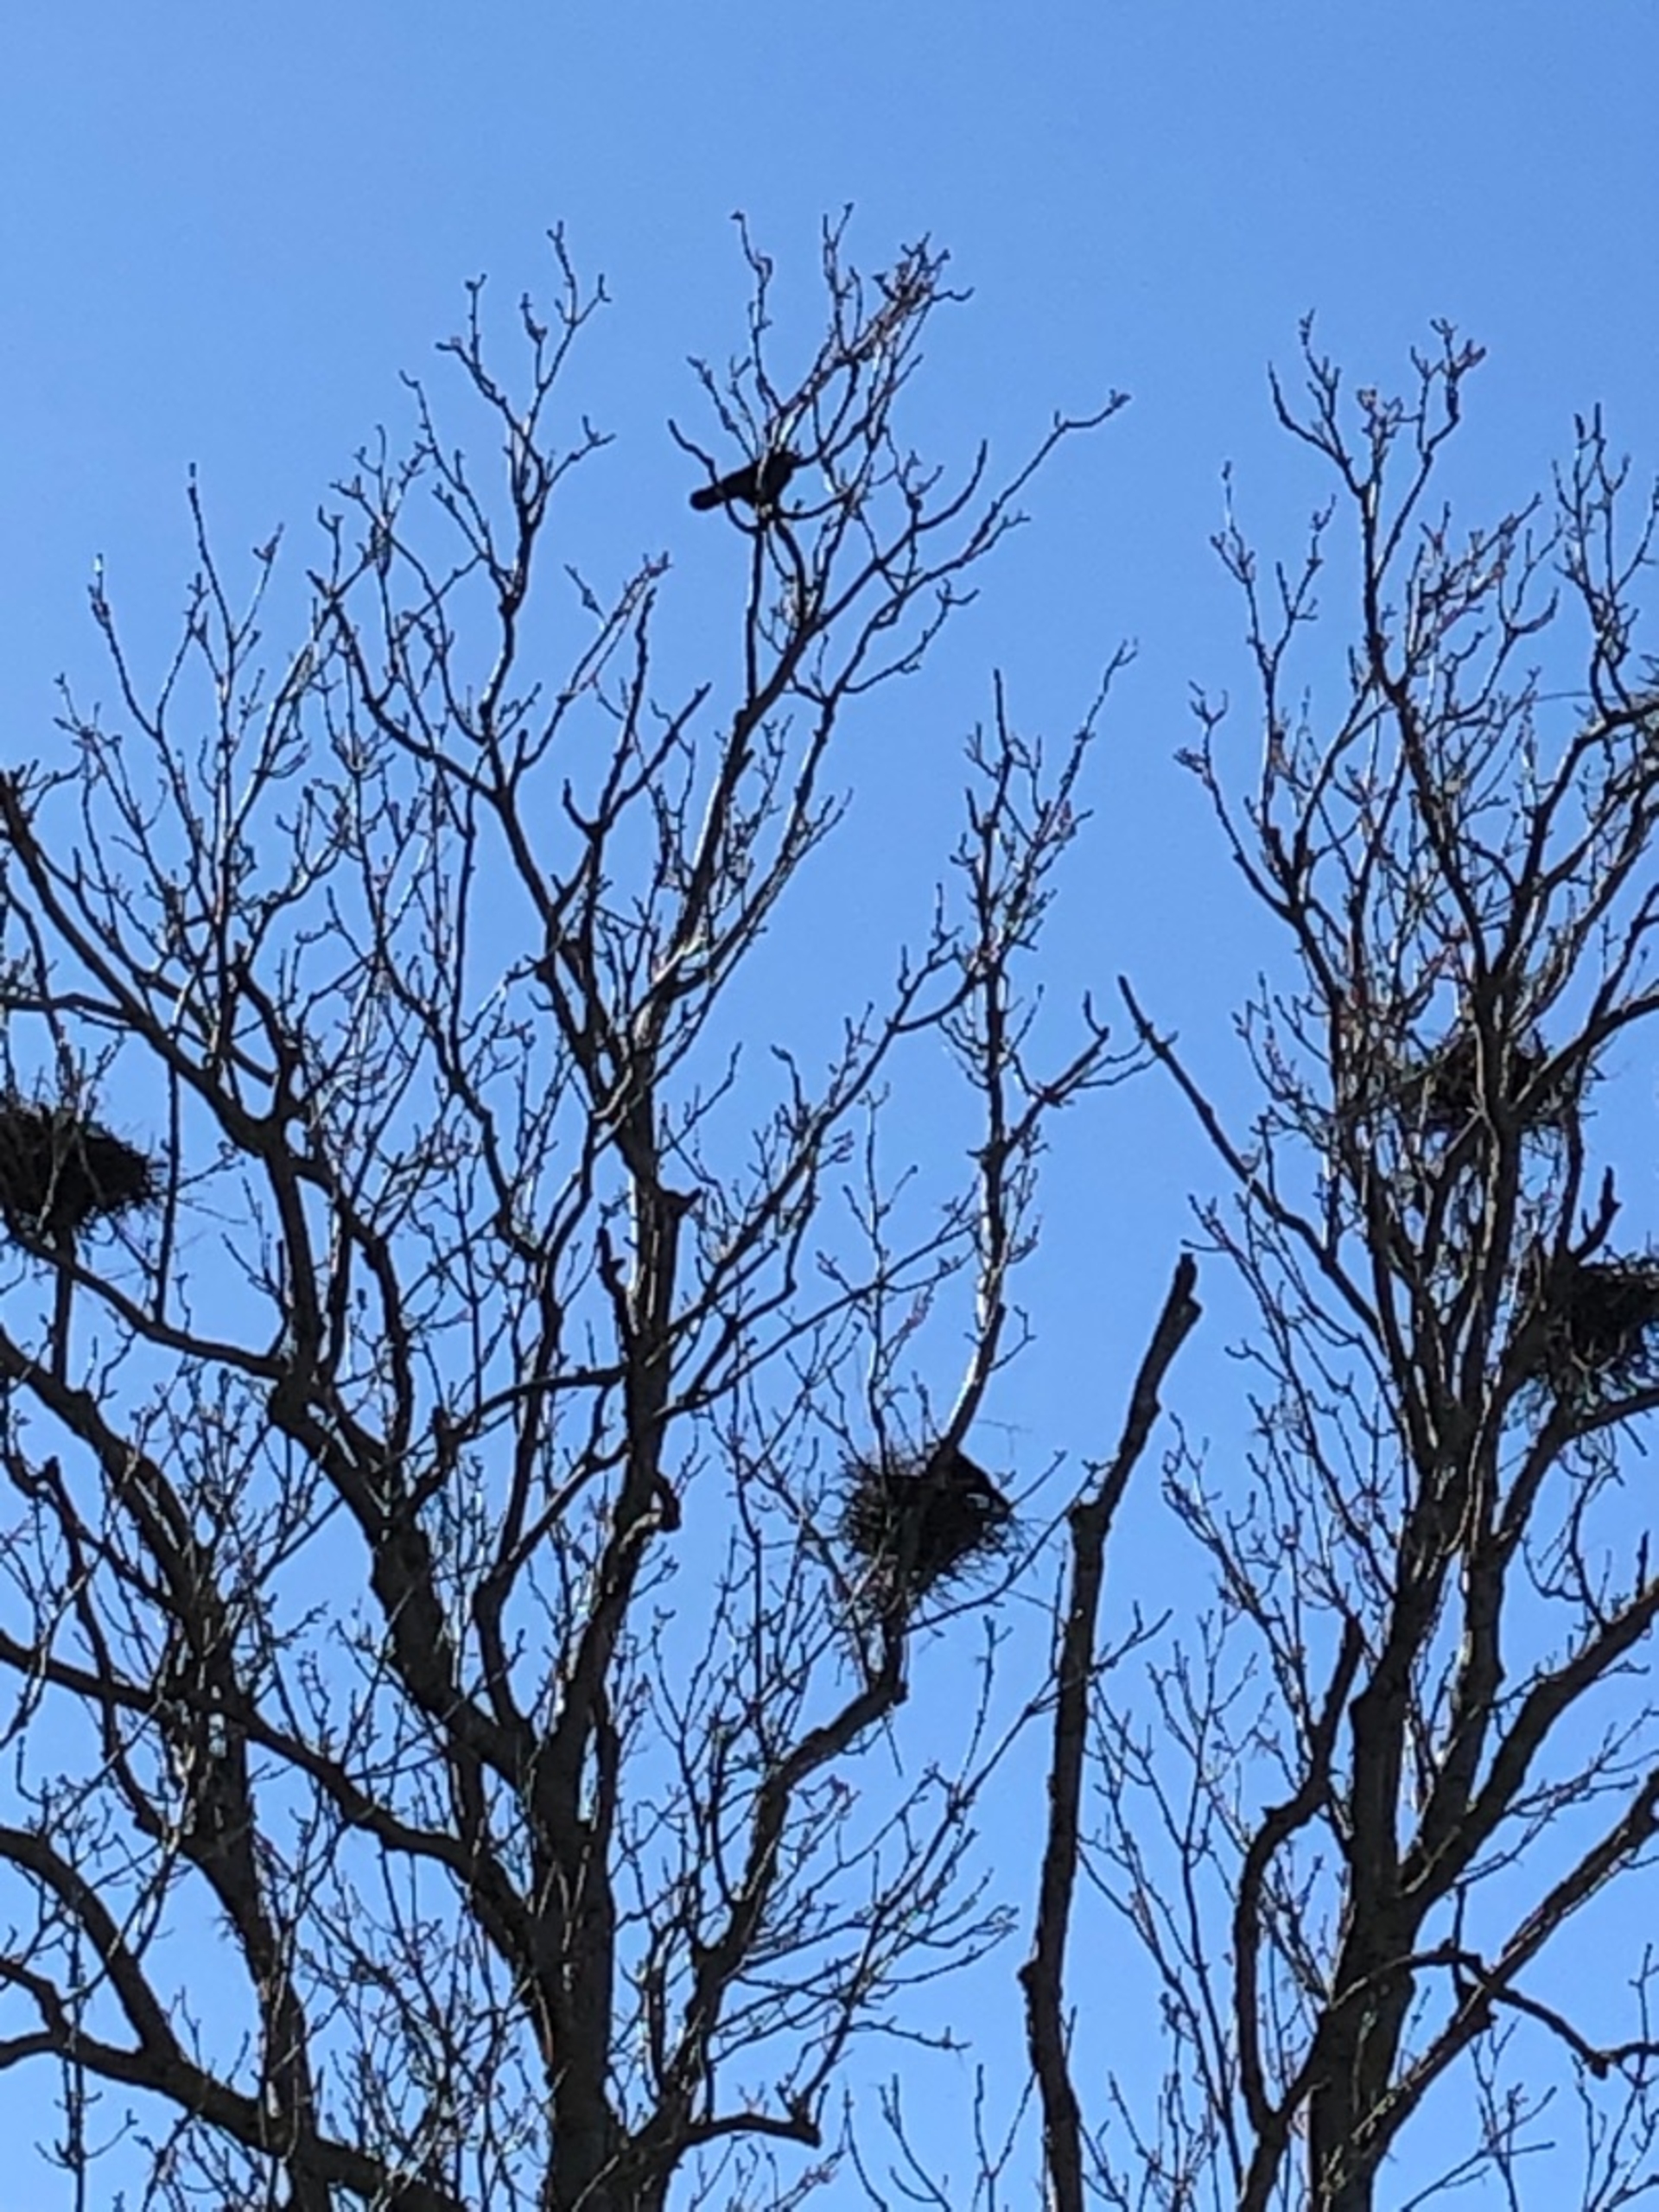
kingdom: Animalia
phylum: Chordata
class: Aves
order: Passeriformes
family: Corvidae
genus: Corvus
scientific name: Corvus frugilegus
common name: Råge
